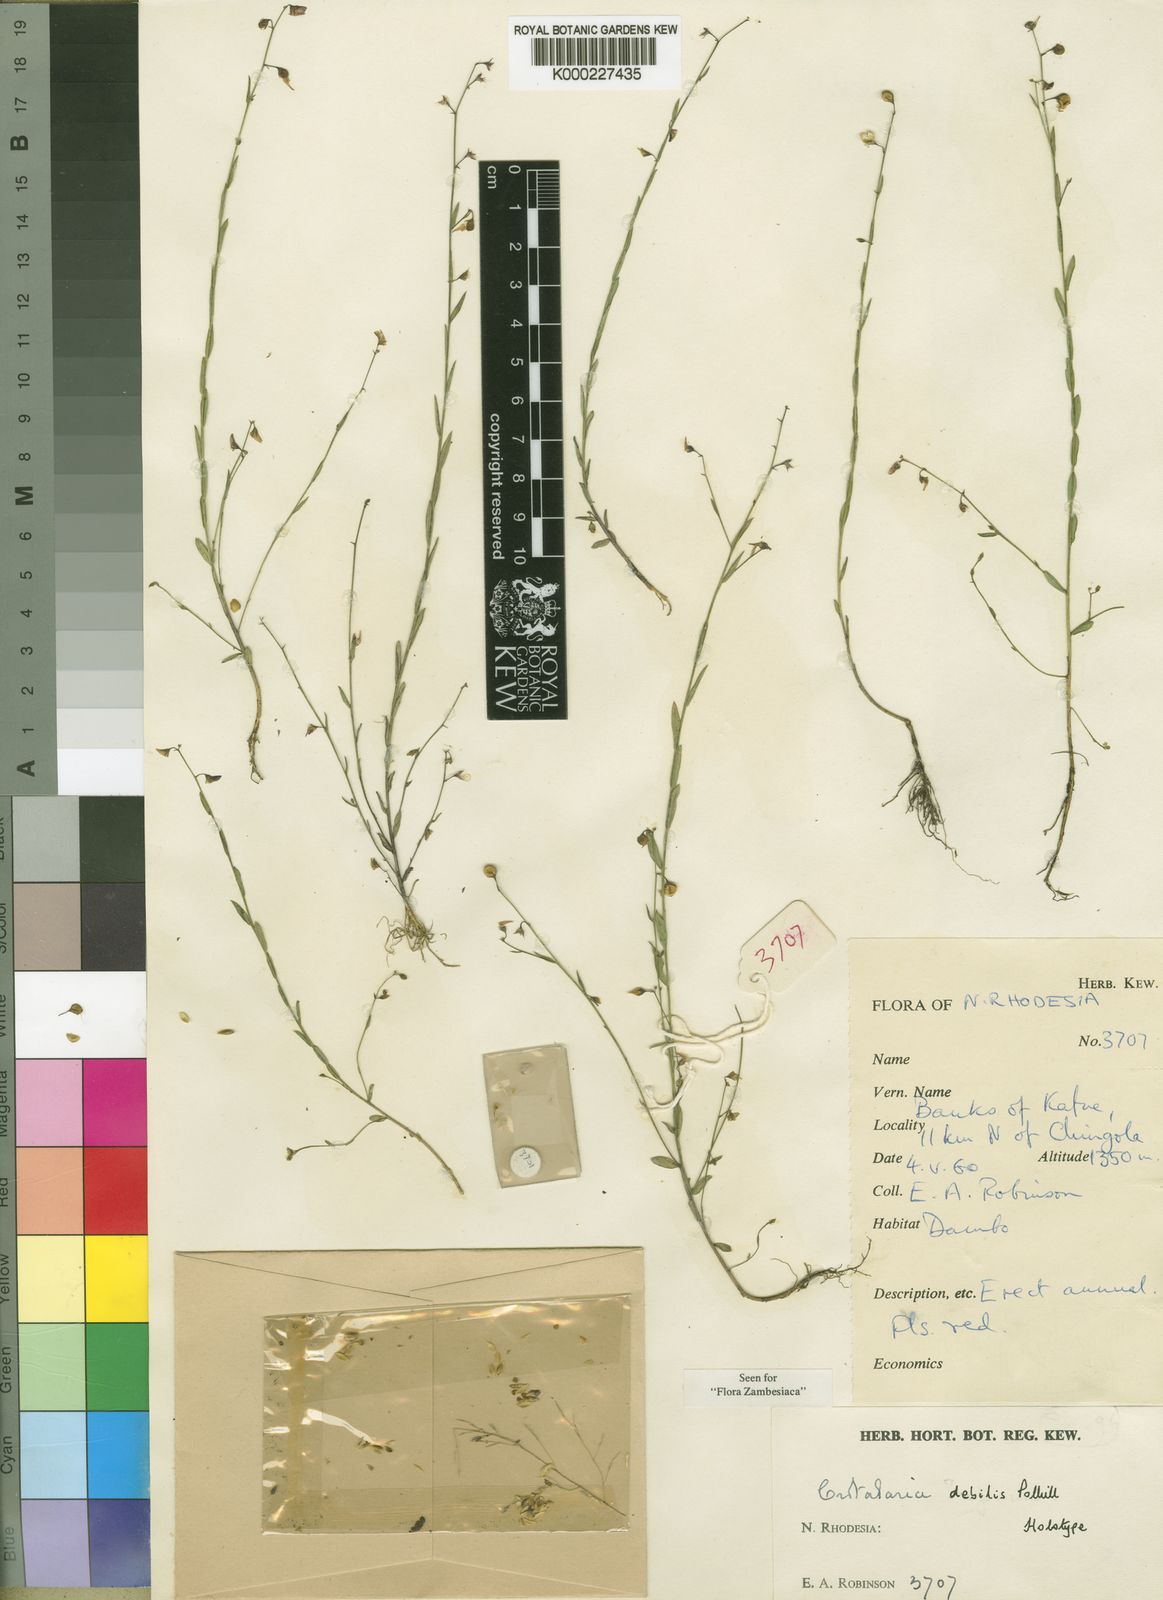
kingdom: Plantae
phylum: Tracheophyta
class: Magnoliopsida
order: Fabales
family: Fabaceae
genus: Crotalaria
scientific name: Crotalaria debilis
